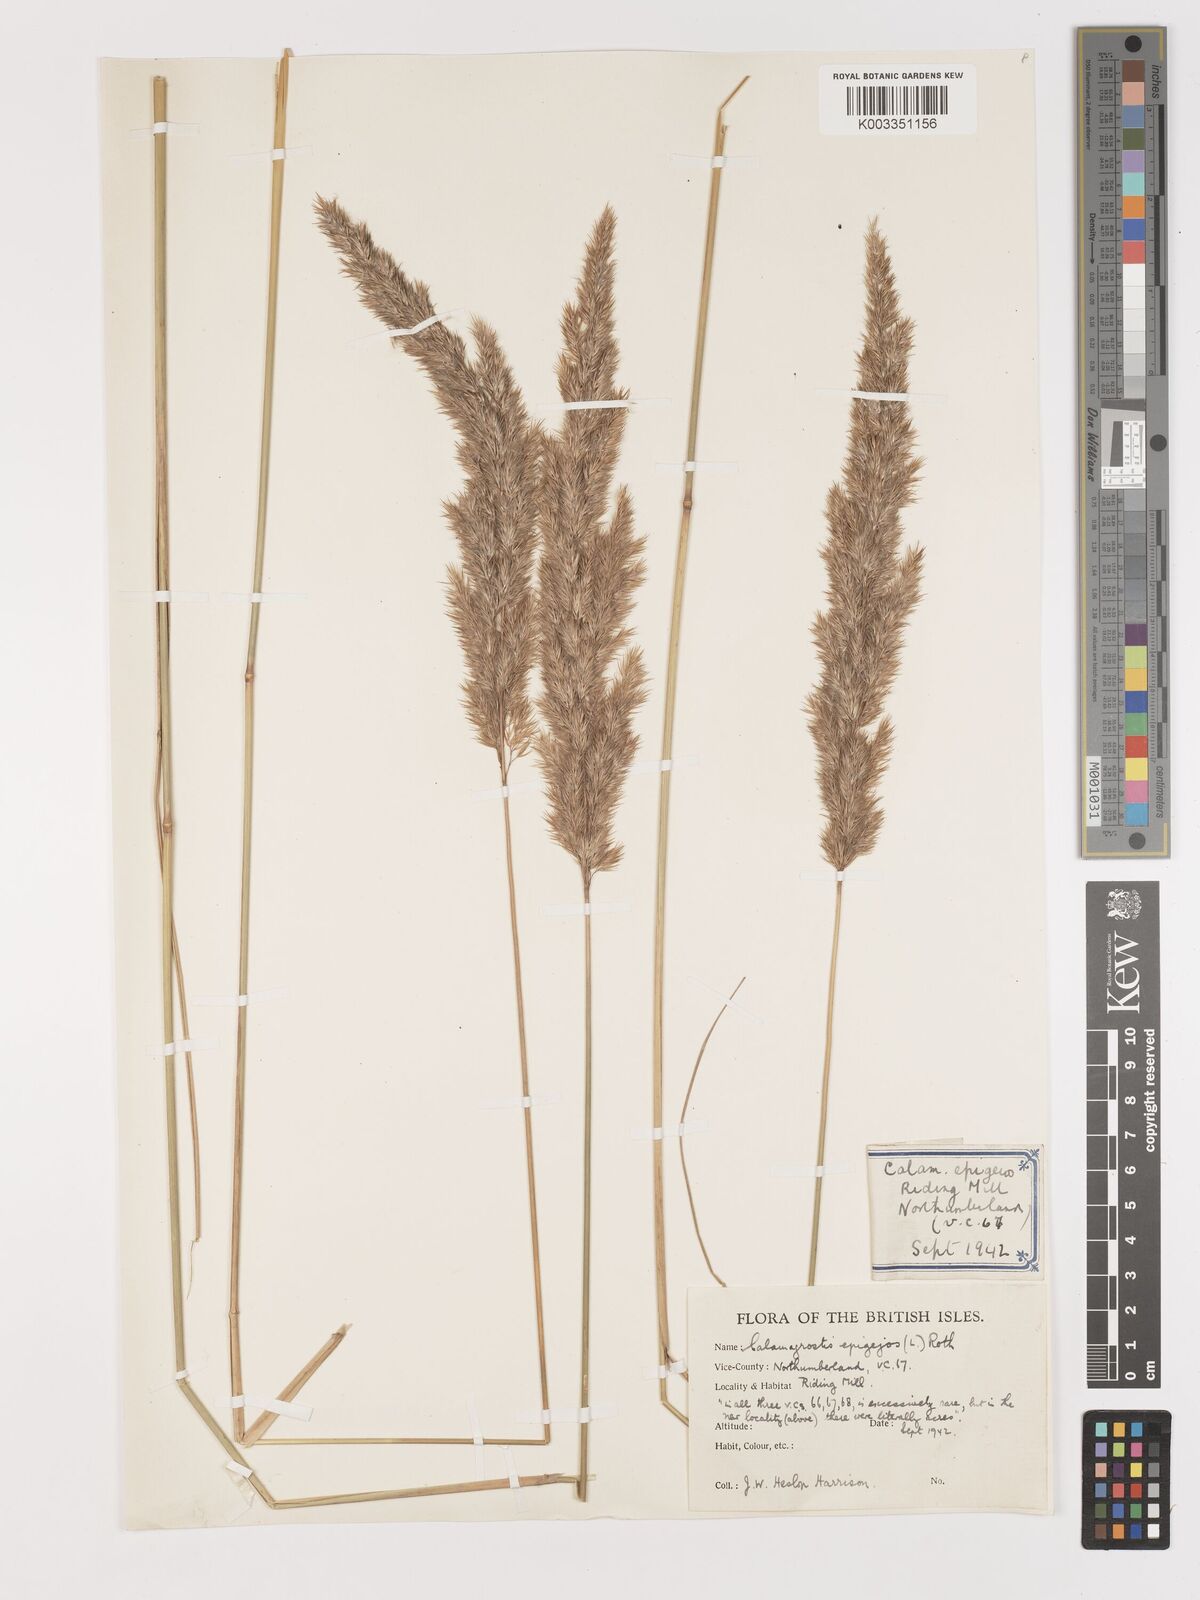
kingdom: Plantae
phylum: Tracheophyta
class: Liliopsida
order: Poales
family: Poaceae
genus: Calamagrostis
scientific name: Calamagrostis
